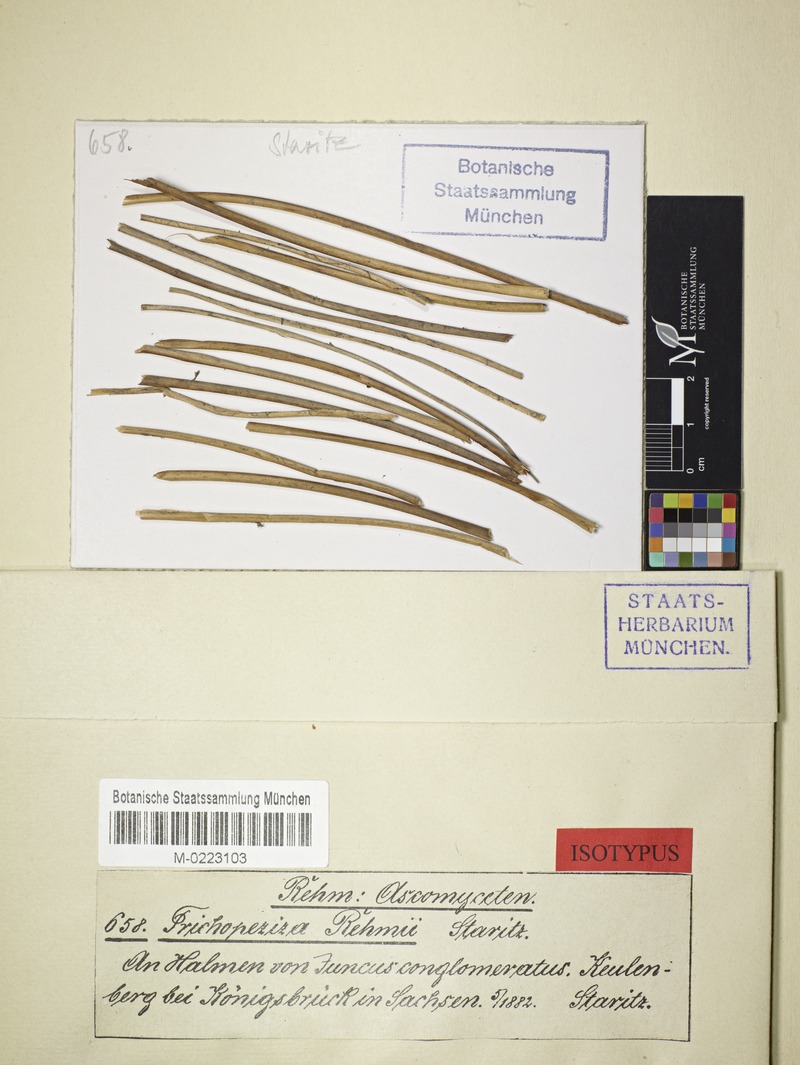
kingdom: Fungi
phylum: Ascomycota
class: Leotiomycetes
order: Helotiales
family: Lachnaceae
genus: Lachnum
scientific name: Lachnum rehmii
